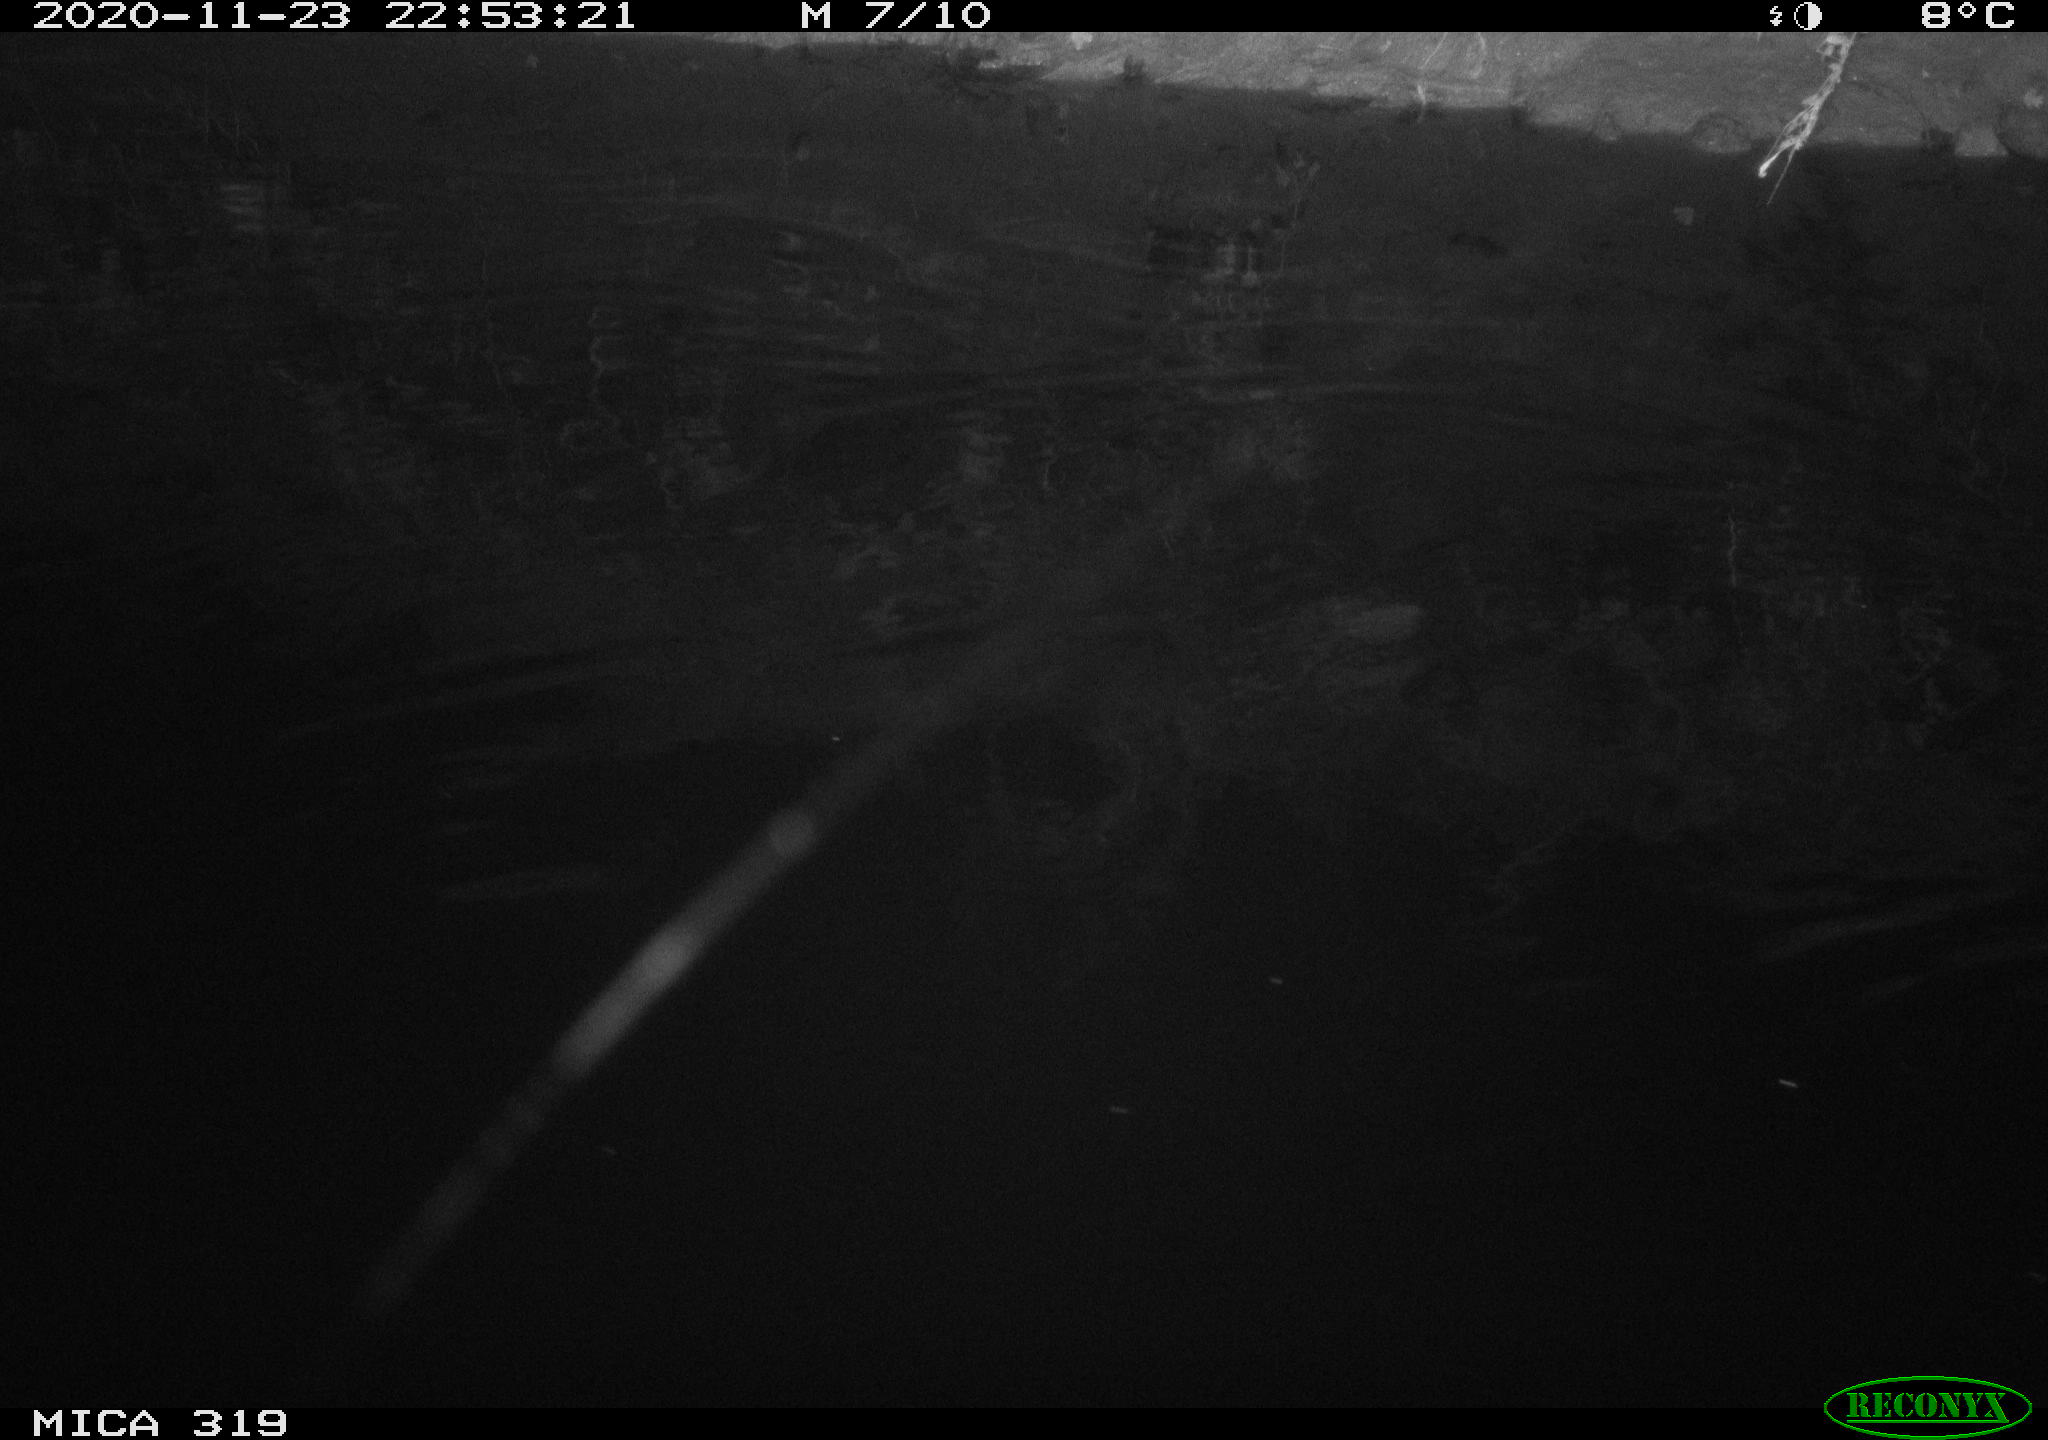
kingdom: Animalia
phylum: Chordata
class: Mammalia
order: Rodentia
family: Muridae
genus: Rattus
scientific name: Rattus norvegicus
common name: Brown rat
